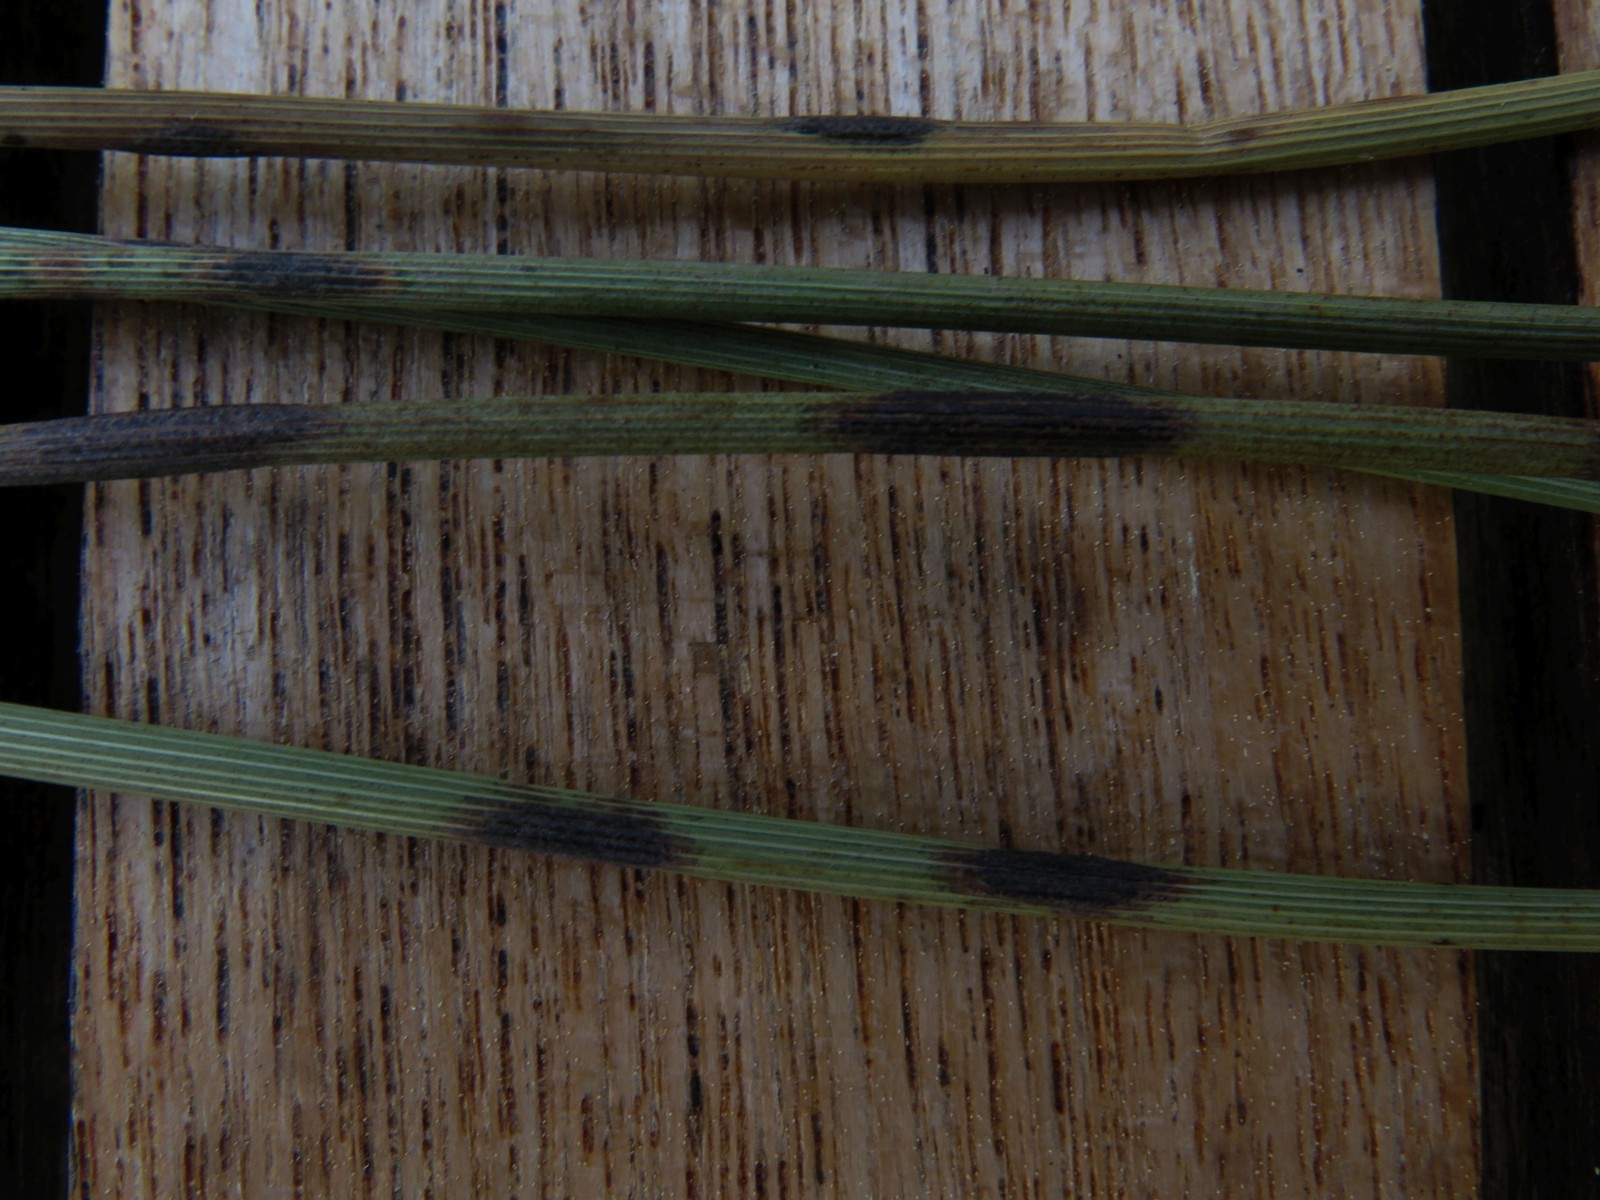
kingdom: Fungi
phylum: Ascomycota
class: Sordariomycetes
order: Phyllachorales
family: Phyllachoraceae
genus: Phyllachora
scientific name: Phyllachora junci
